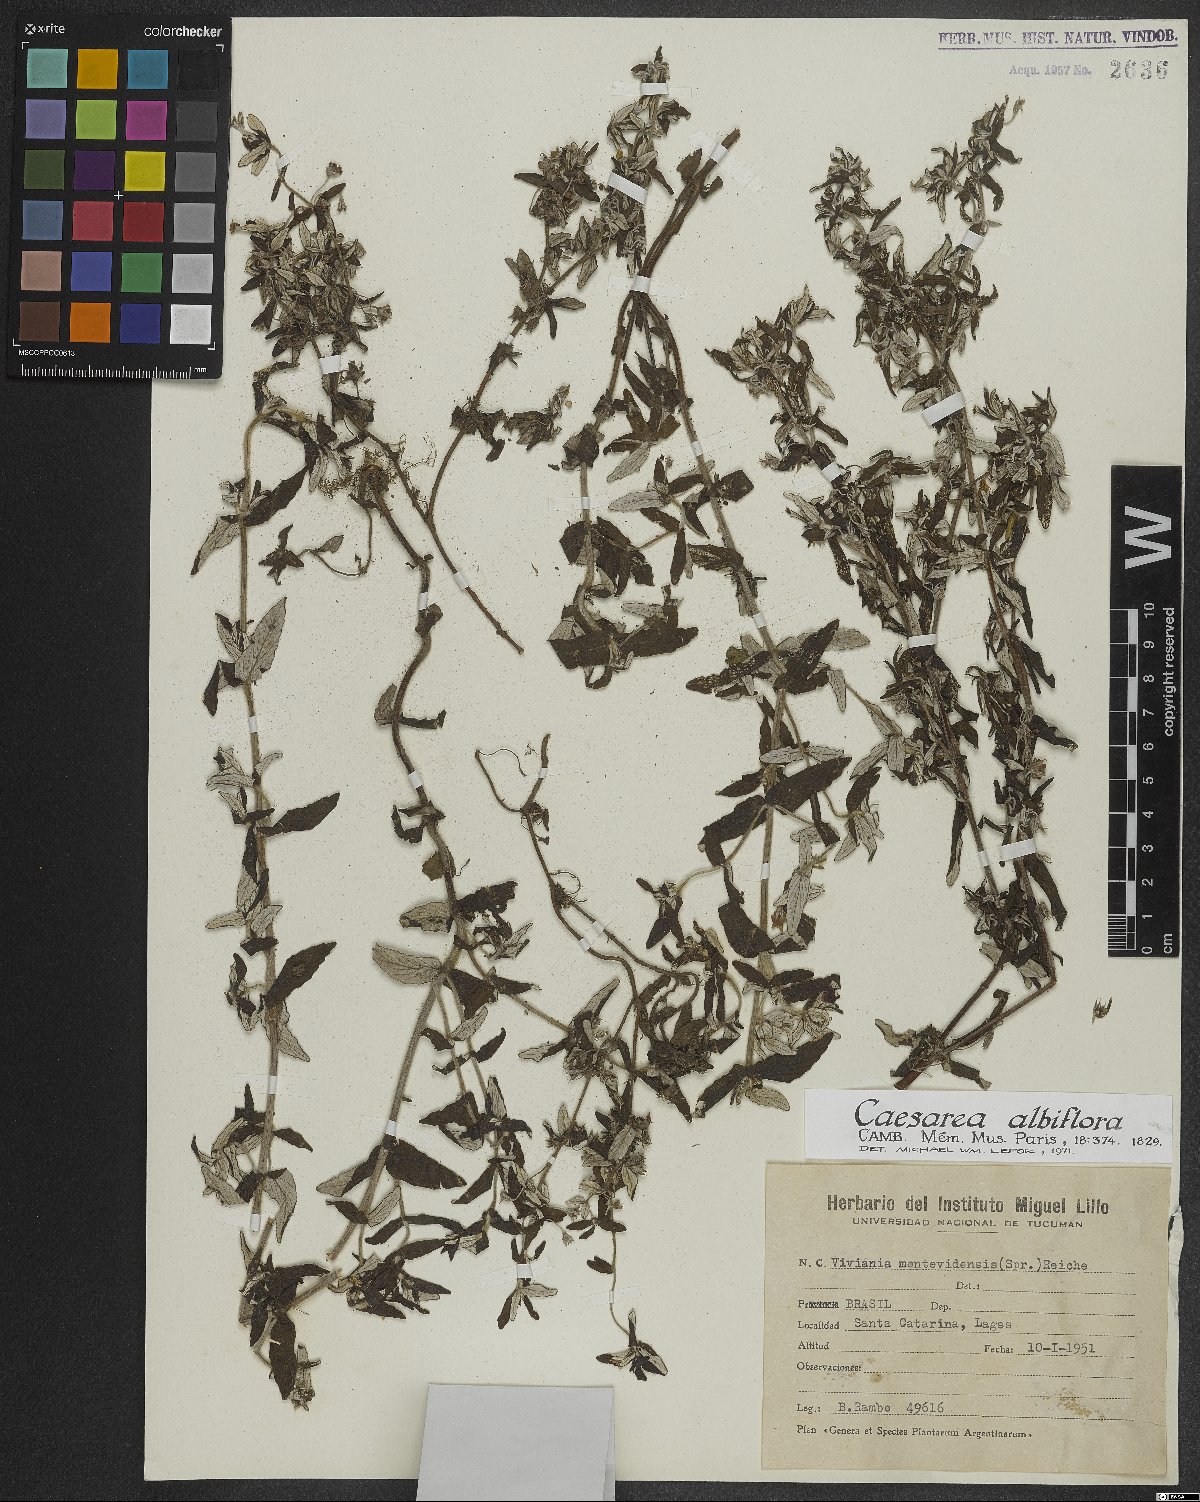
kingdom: Plantae
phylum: Tracheophyta
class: Magnoliopsida
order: Geraniales
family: Vivianiaceae
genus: Viviania
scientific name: Viviania albiflora
